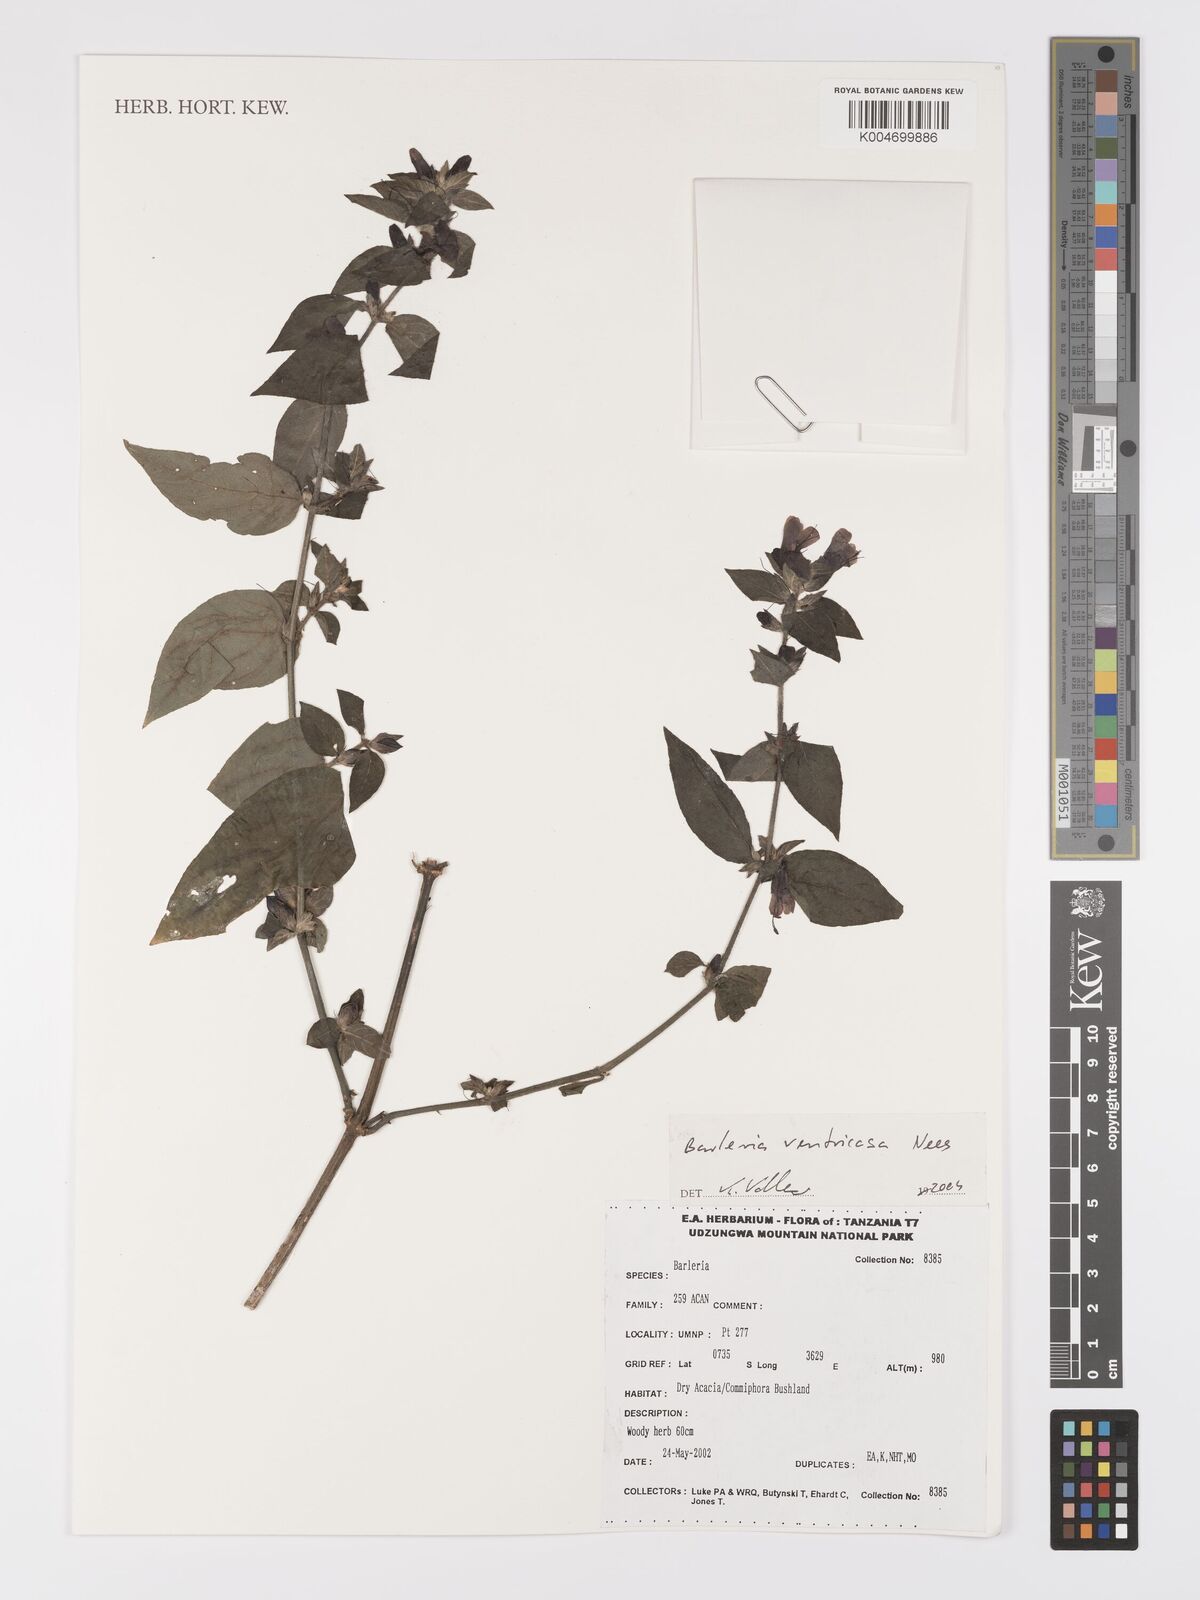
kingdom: Plantae
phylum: Tracheophyta
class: Magnoliopsida
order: Lamiales
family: Acanthaceae
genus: Barleria
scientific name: Barleria ventricosa
